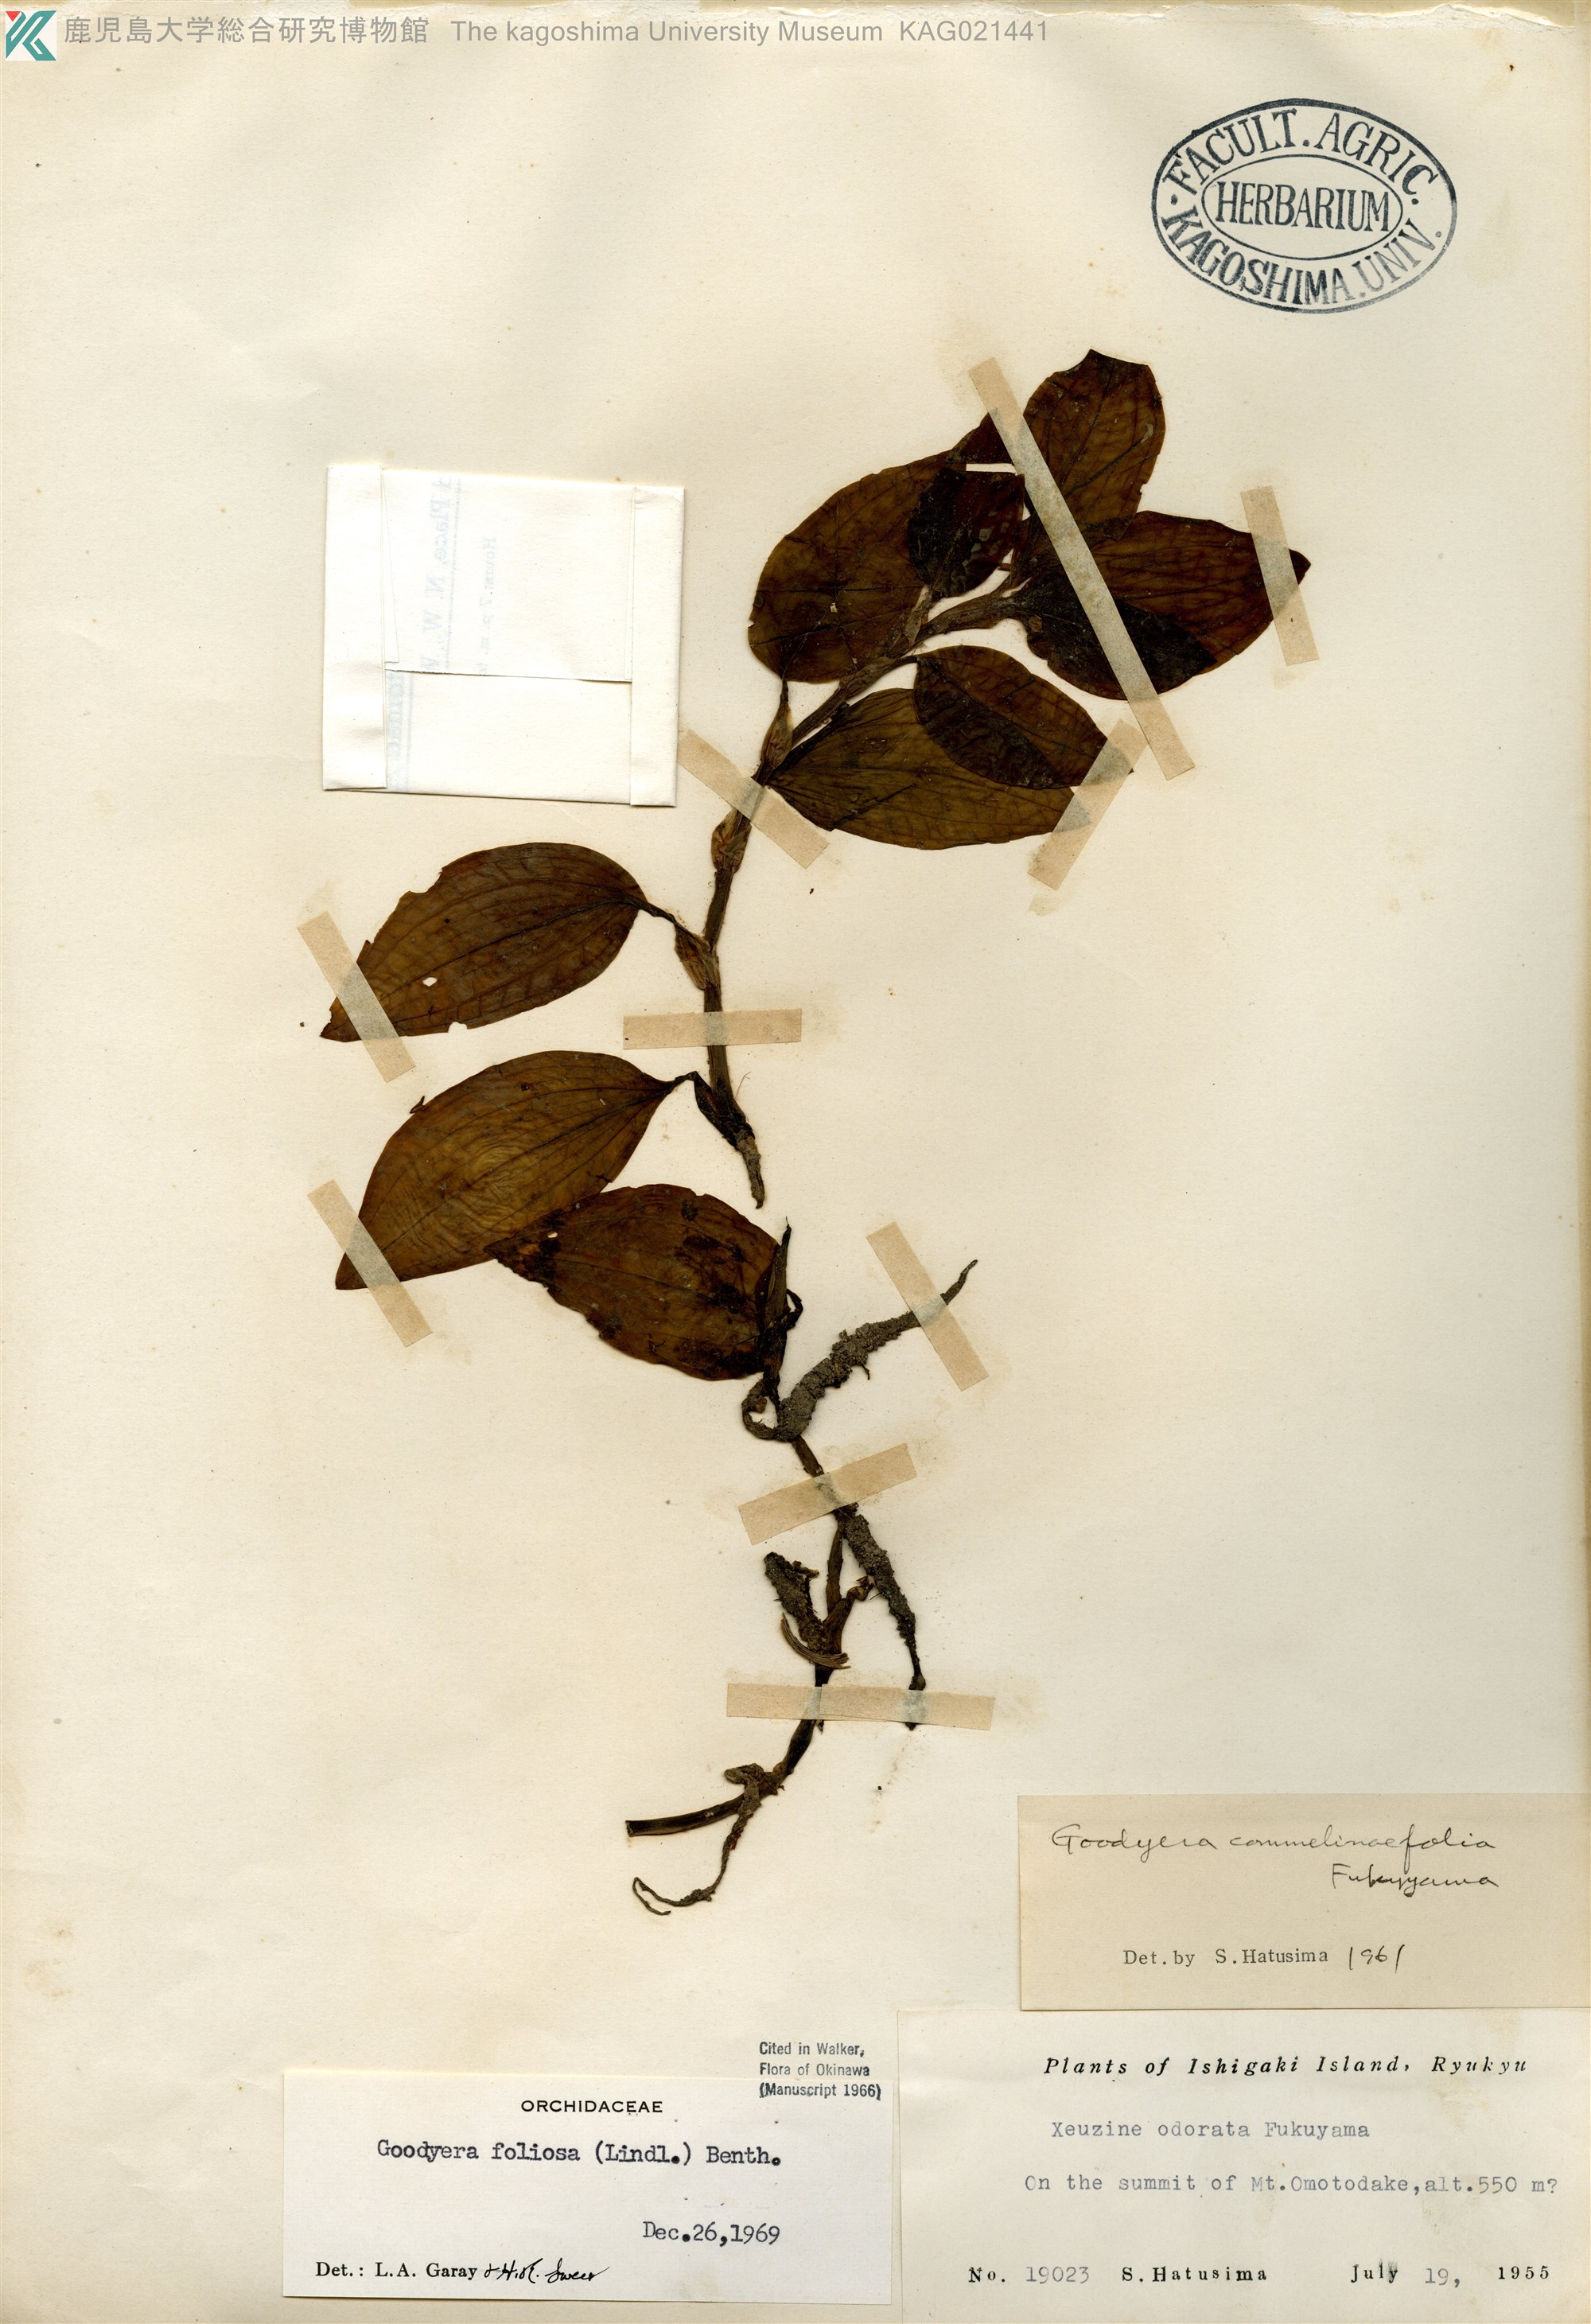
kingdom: Plantae
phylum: Tracheophyta
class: Liliopsida
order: Asparagales
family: Orchidaceae
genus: Goodyera
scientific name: Goodyera foliosa
